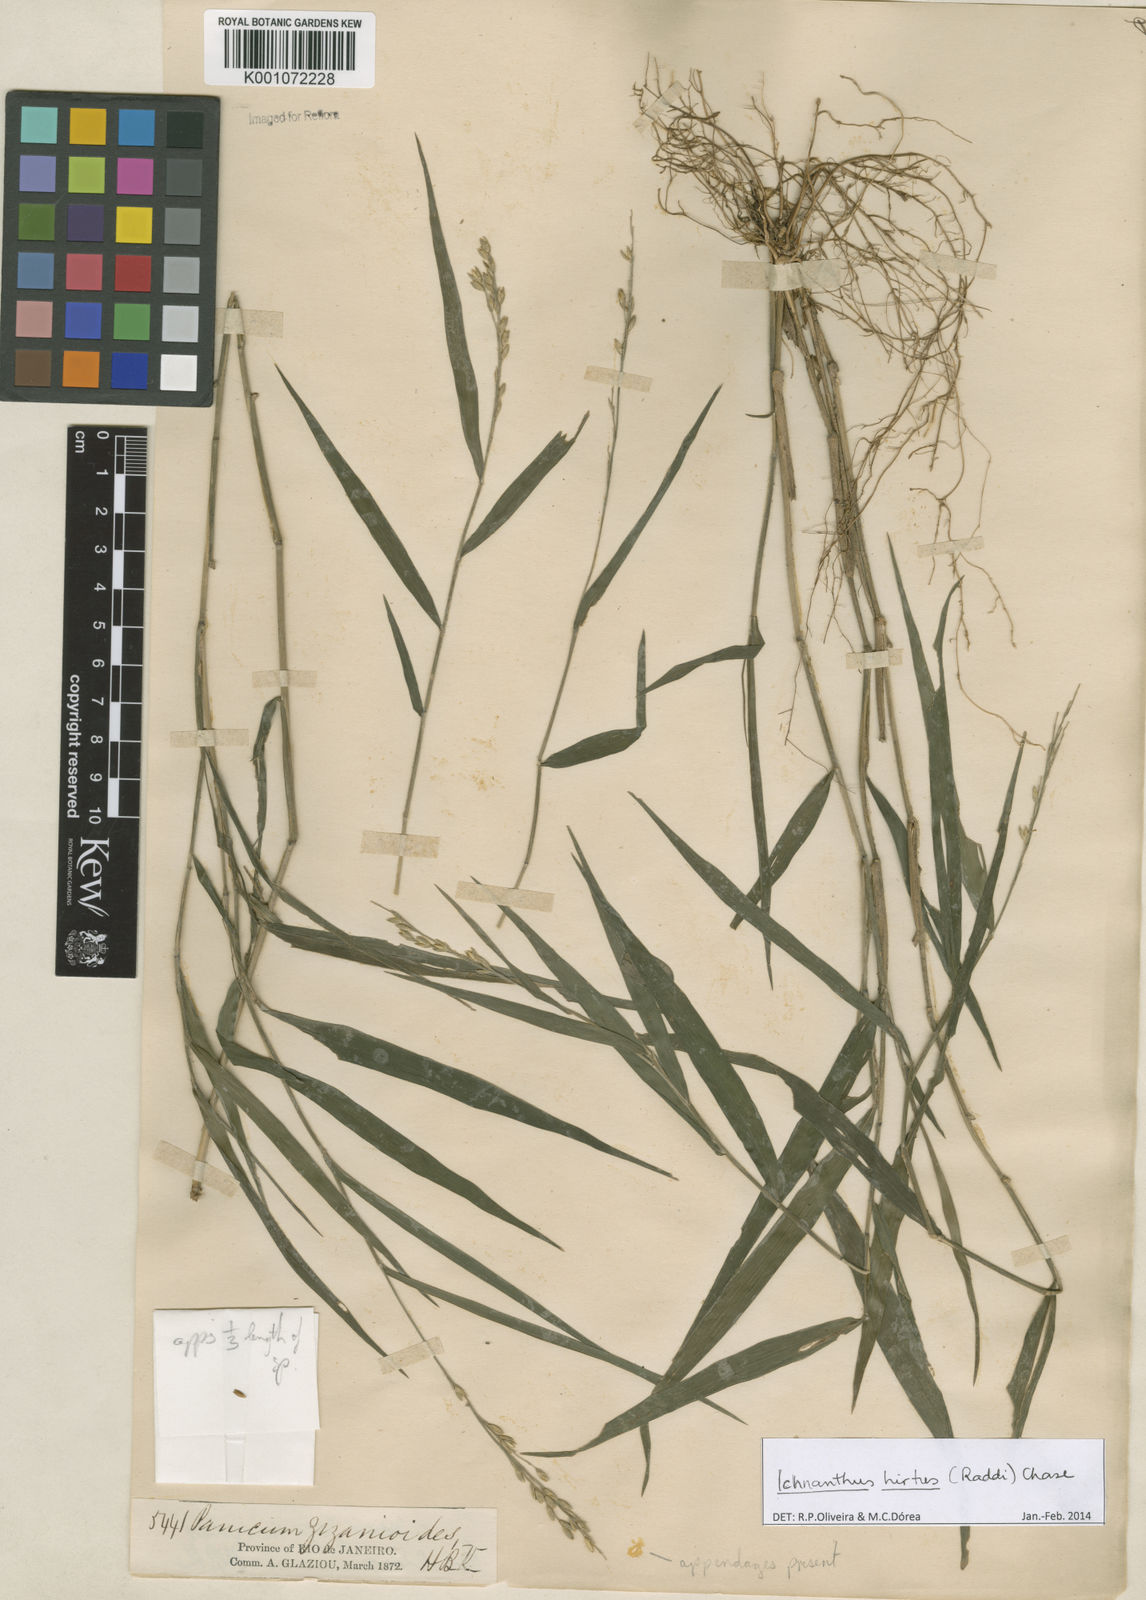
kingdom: Plantae
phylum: Tracheophyta
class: Liliopsida
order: Poales
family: Poaceae
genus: Ichnanthus
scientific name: Ichnanthus hirtus
